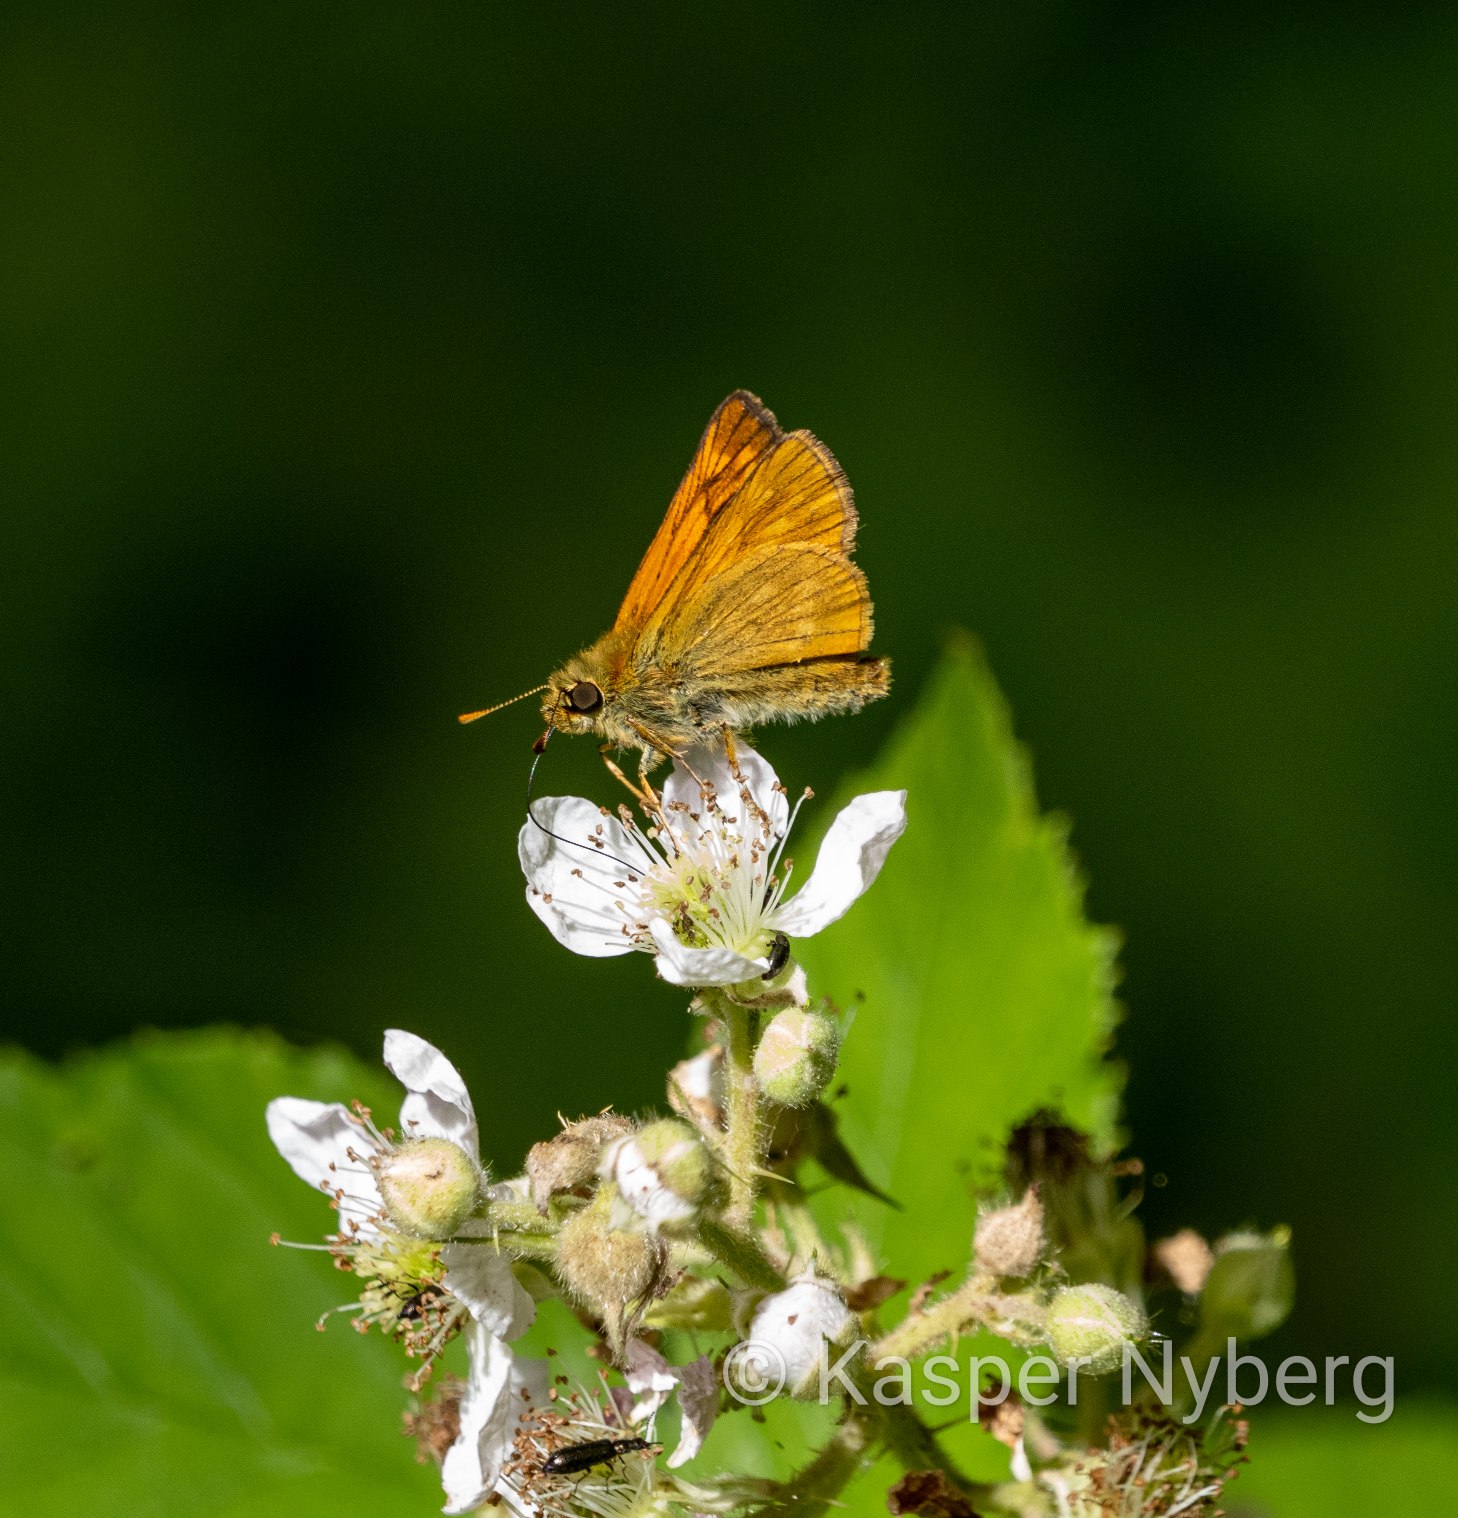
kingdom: Animalia
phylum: Arthropoda
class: Insecta
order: Lepidoptera
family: Hesperiidae
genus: Ochlodes
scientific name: Ochlodes venata
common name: Stor bredpande
